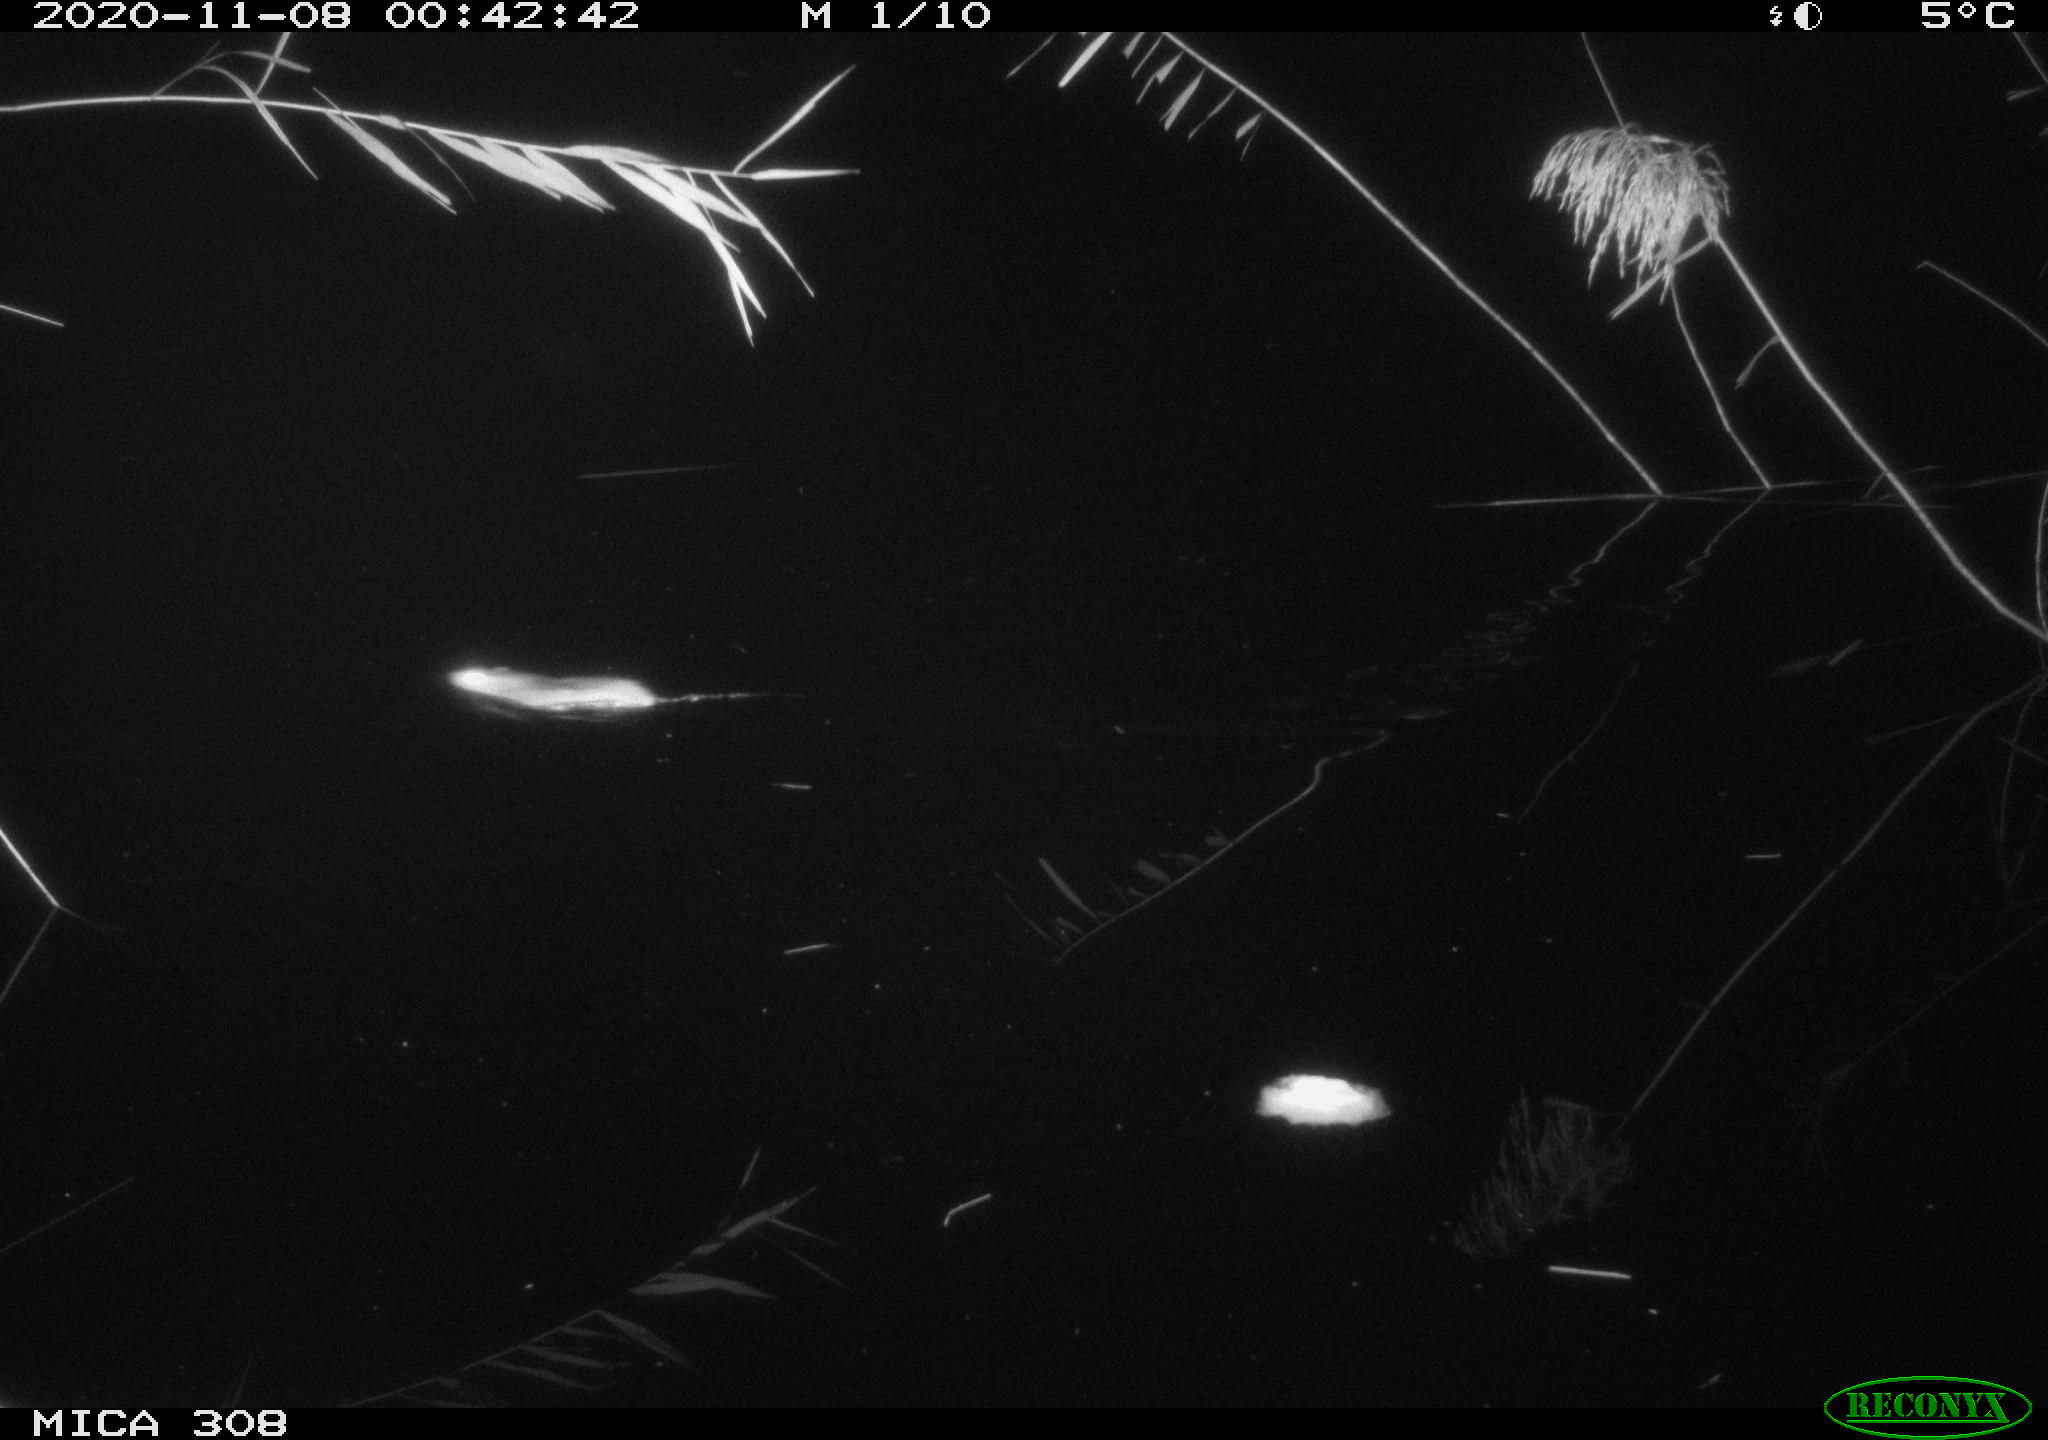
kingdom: Animalia
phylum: Chordata
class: Mammalia
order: Rodentia
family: Muridae
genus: Rattus
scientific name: Rattus norvegicus
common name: Brown rat
